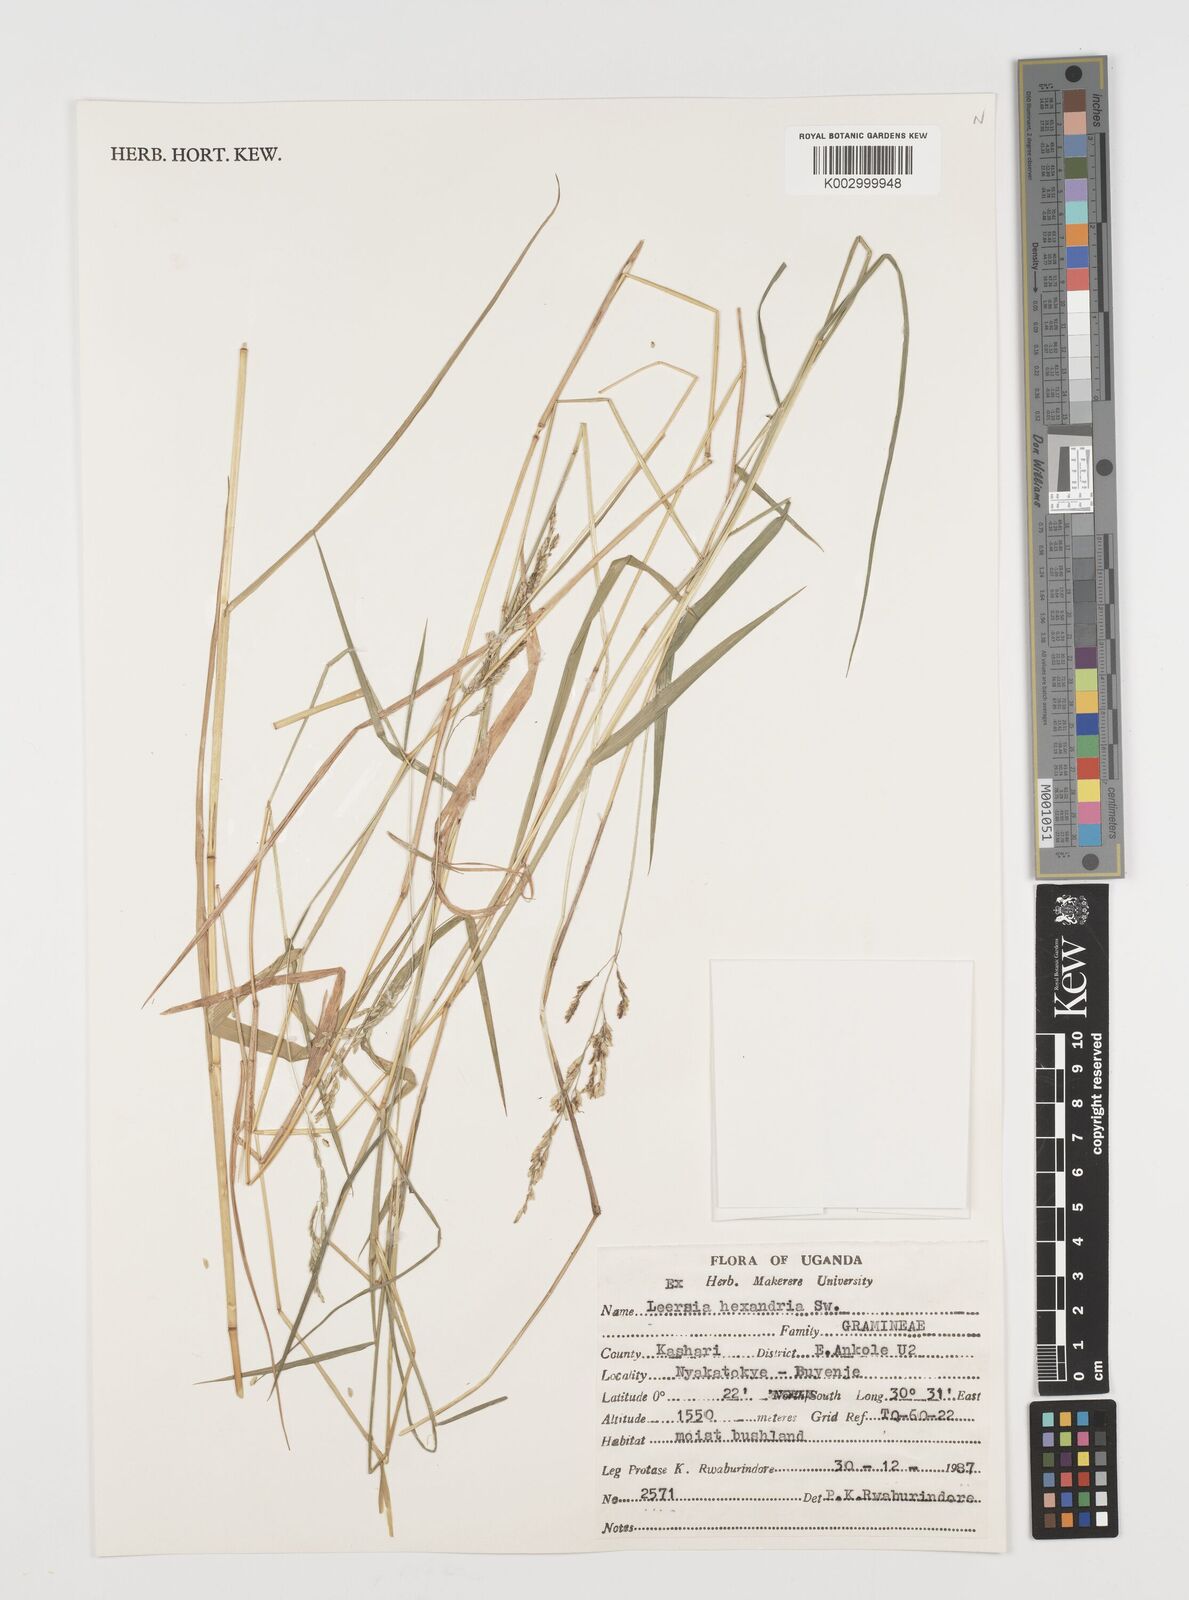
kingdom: Plantae
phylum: Tracheophyta
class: Liliopsida
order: Poales
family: Poaceae
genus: Leersia
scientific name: Leersia hexandra
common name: Southern cut grass
